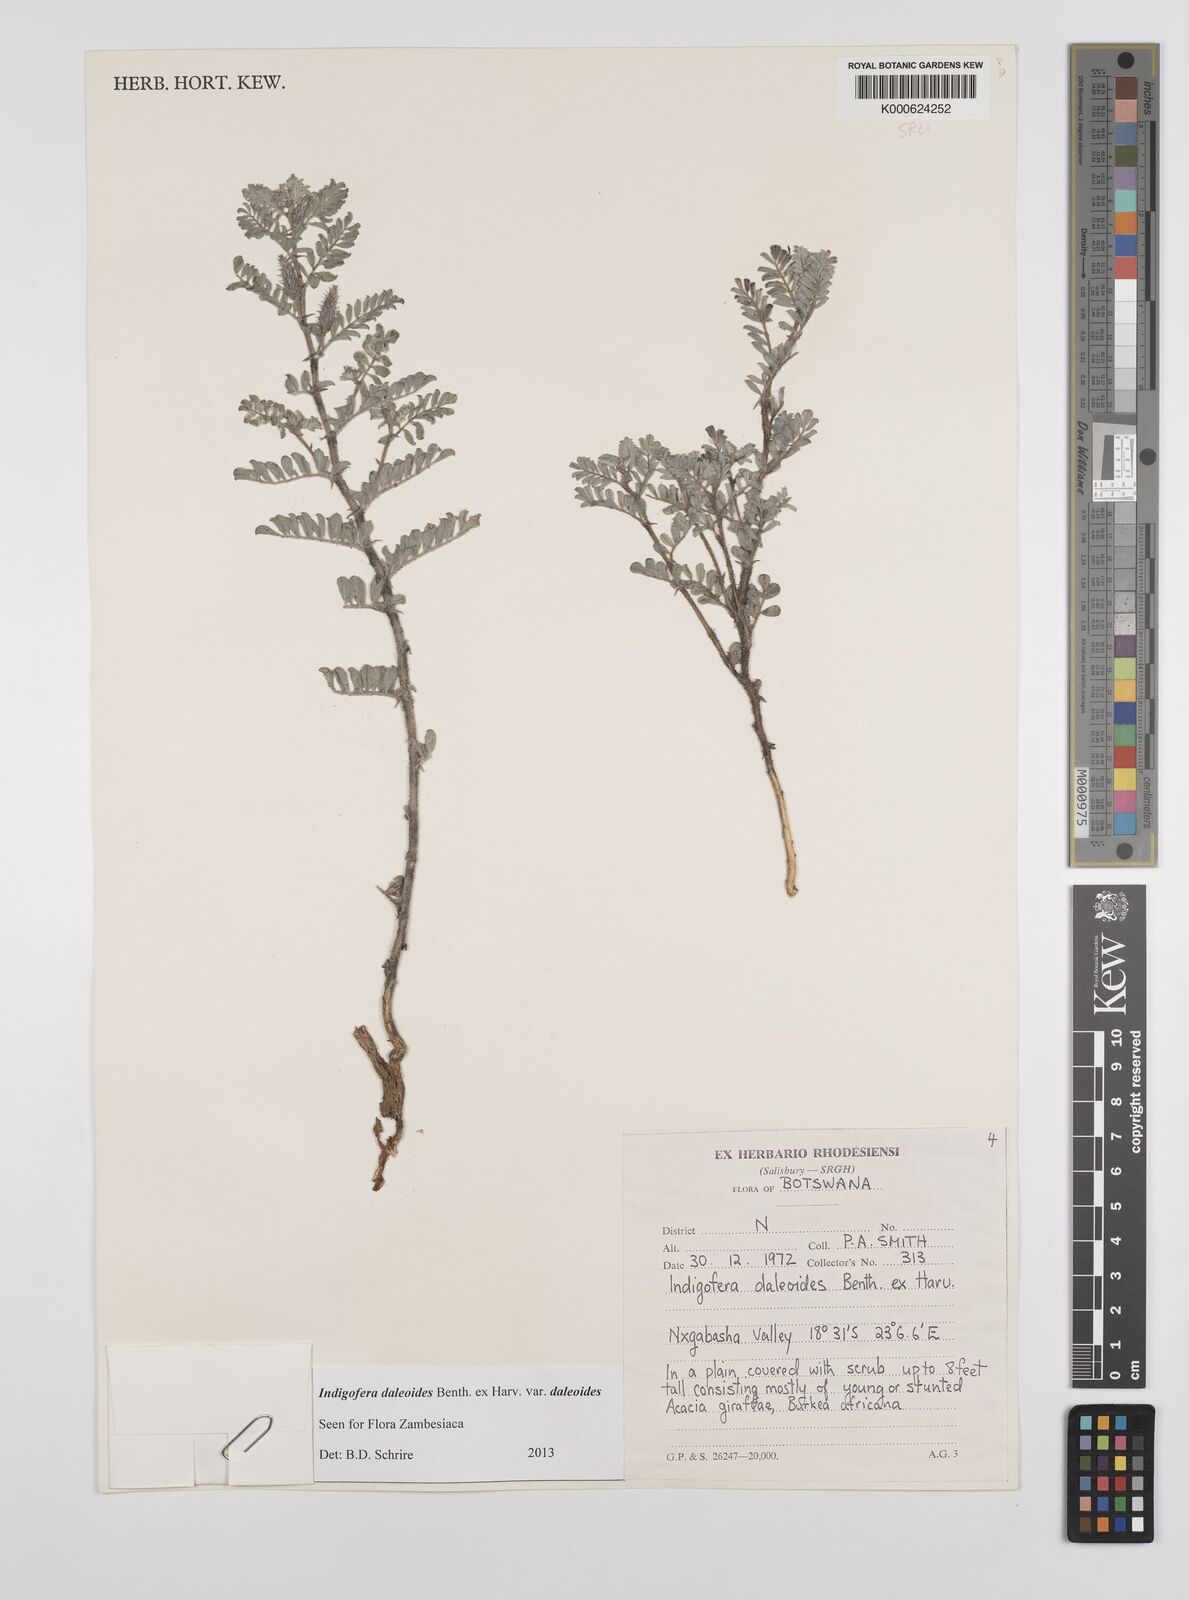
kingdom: Plantae
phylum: Tracheophyta
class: Magnoliopsida
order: Fabales
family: Fabaceae
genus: Indigofera
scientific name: Indigofera daleoides
